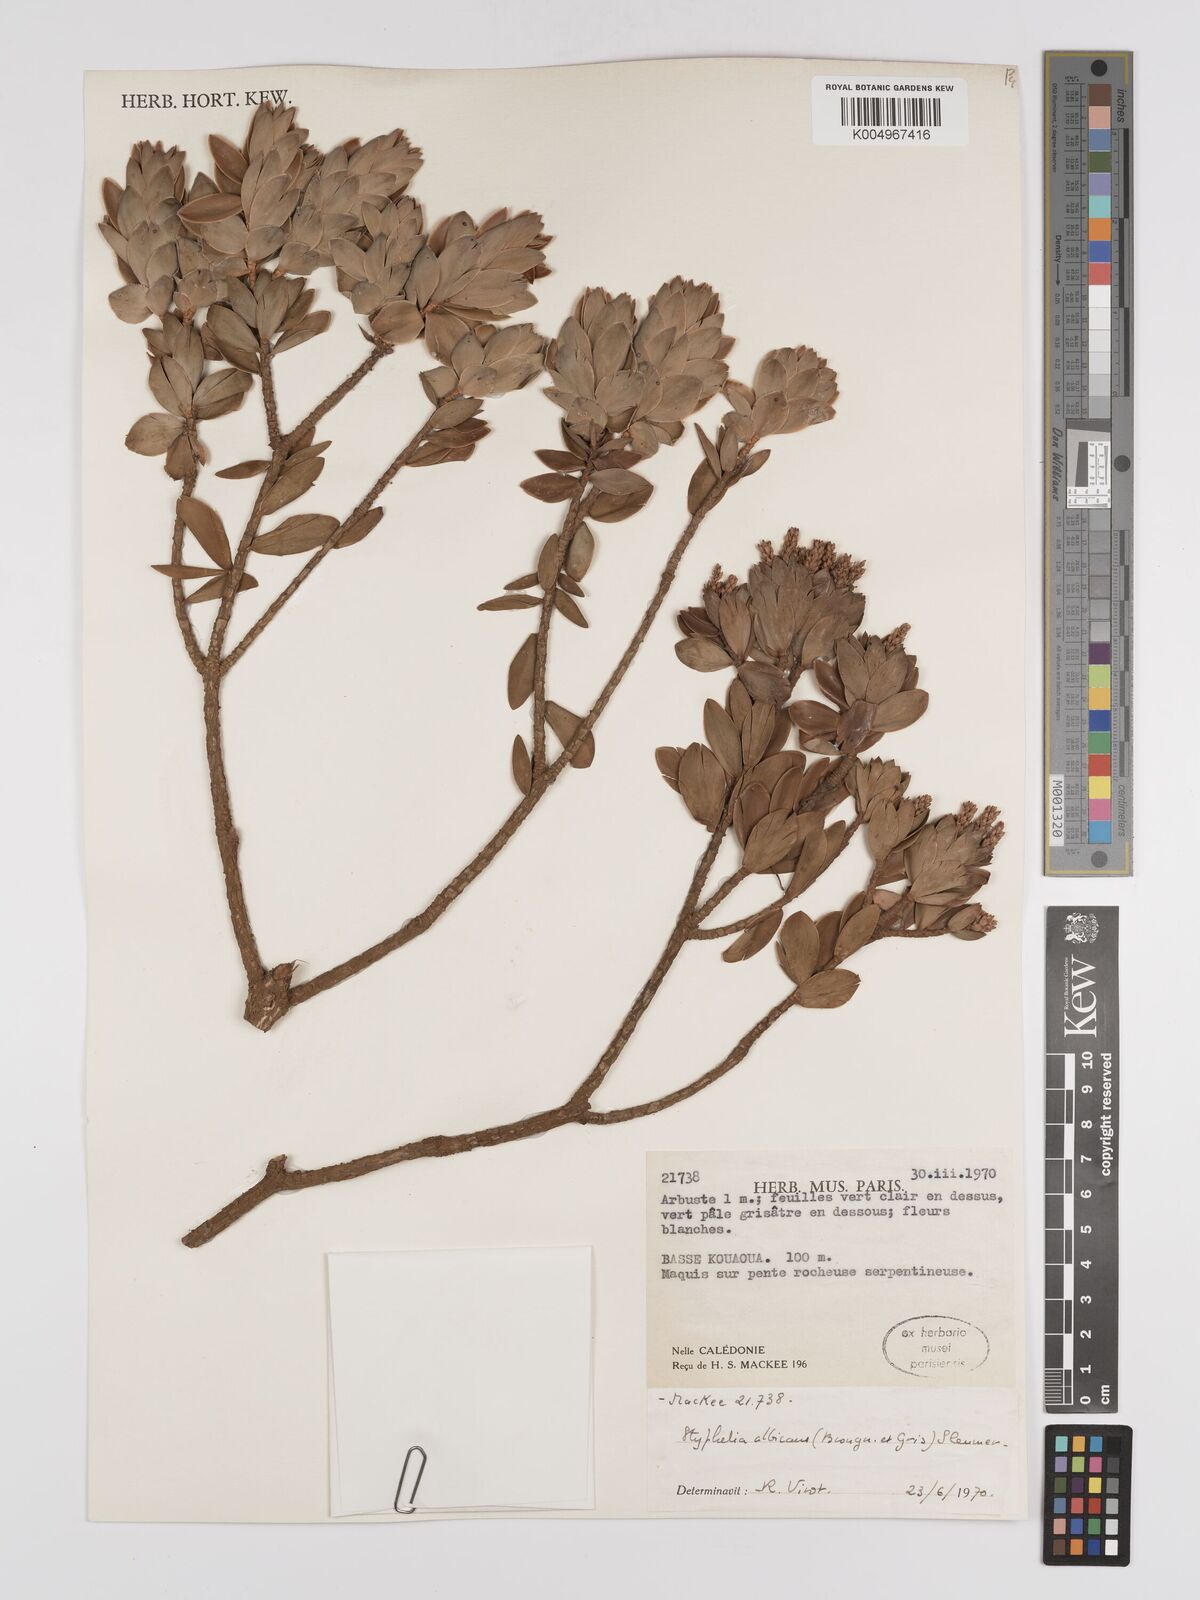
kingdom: Plantae
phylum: Tracheophyta
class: Magnoliopsida
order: Ericales
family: Ericaceae
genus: Cyathopsis
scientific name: Cyathopsis albicans
